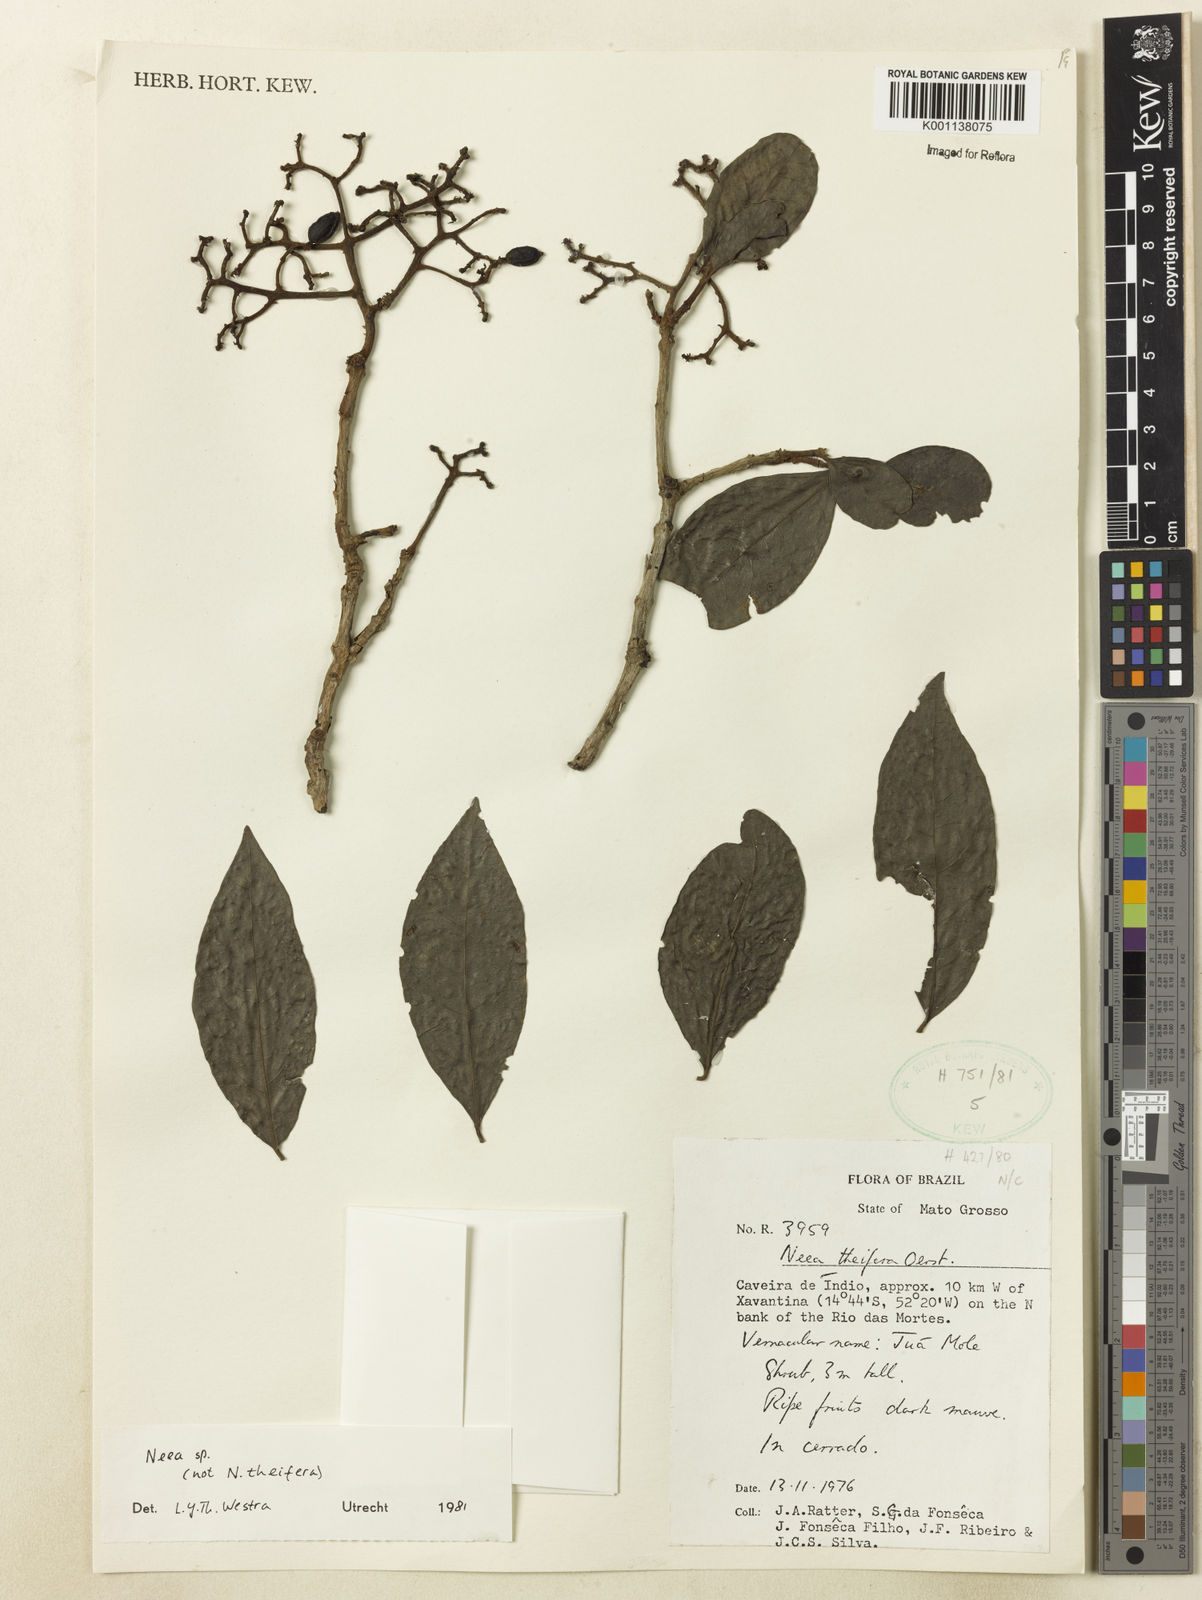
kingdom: Plantae
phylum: Tracheophyta
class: Magnoliopsida
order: Caryophyllales
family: Nyctaginaceae
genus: Neea
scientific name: Neea
